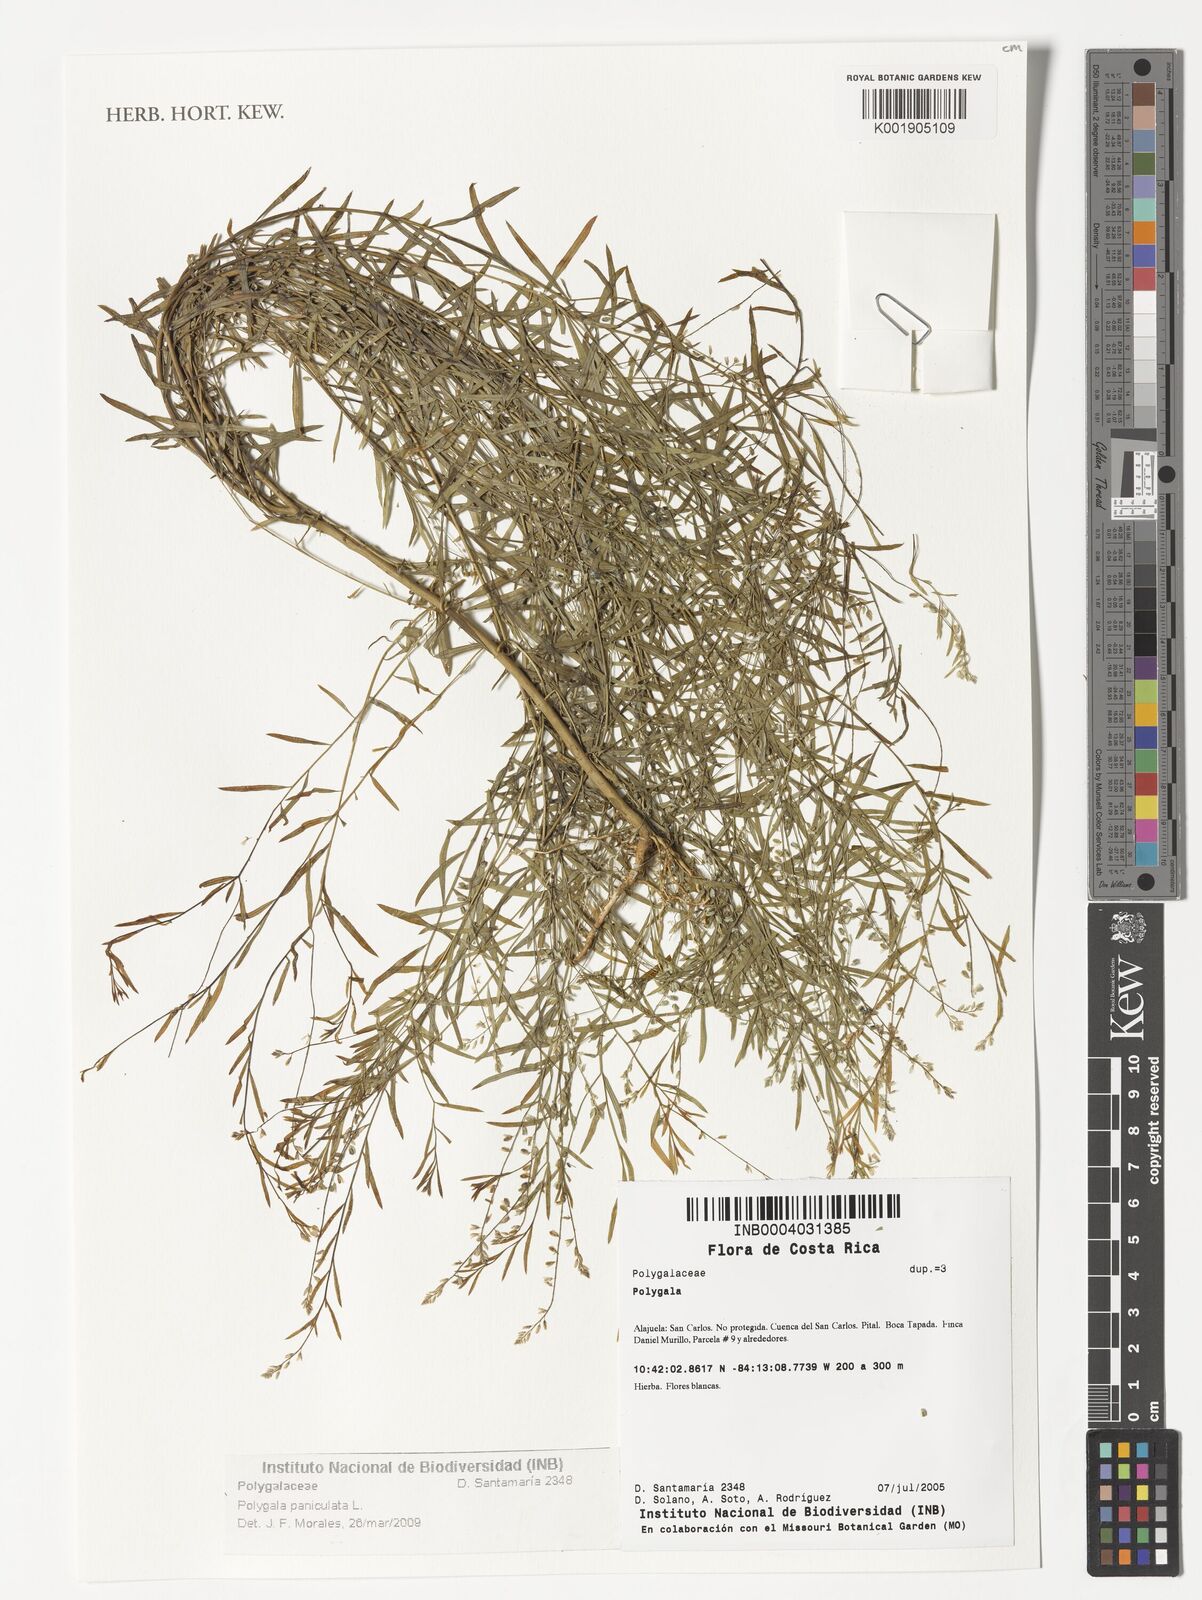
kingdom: Plantae
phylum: Tracheophyta
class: Magnoliopsida
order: Fabales
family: Polygalaceae
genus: Polygala
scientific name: Polygala paniculata
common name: Orosne
